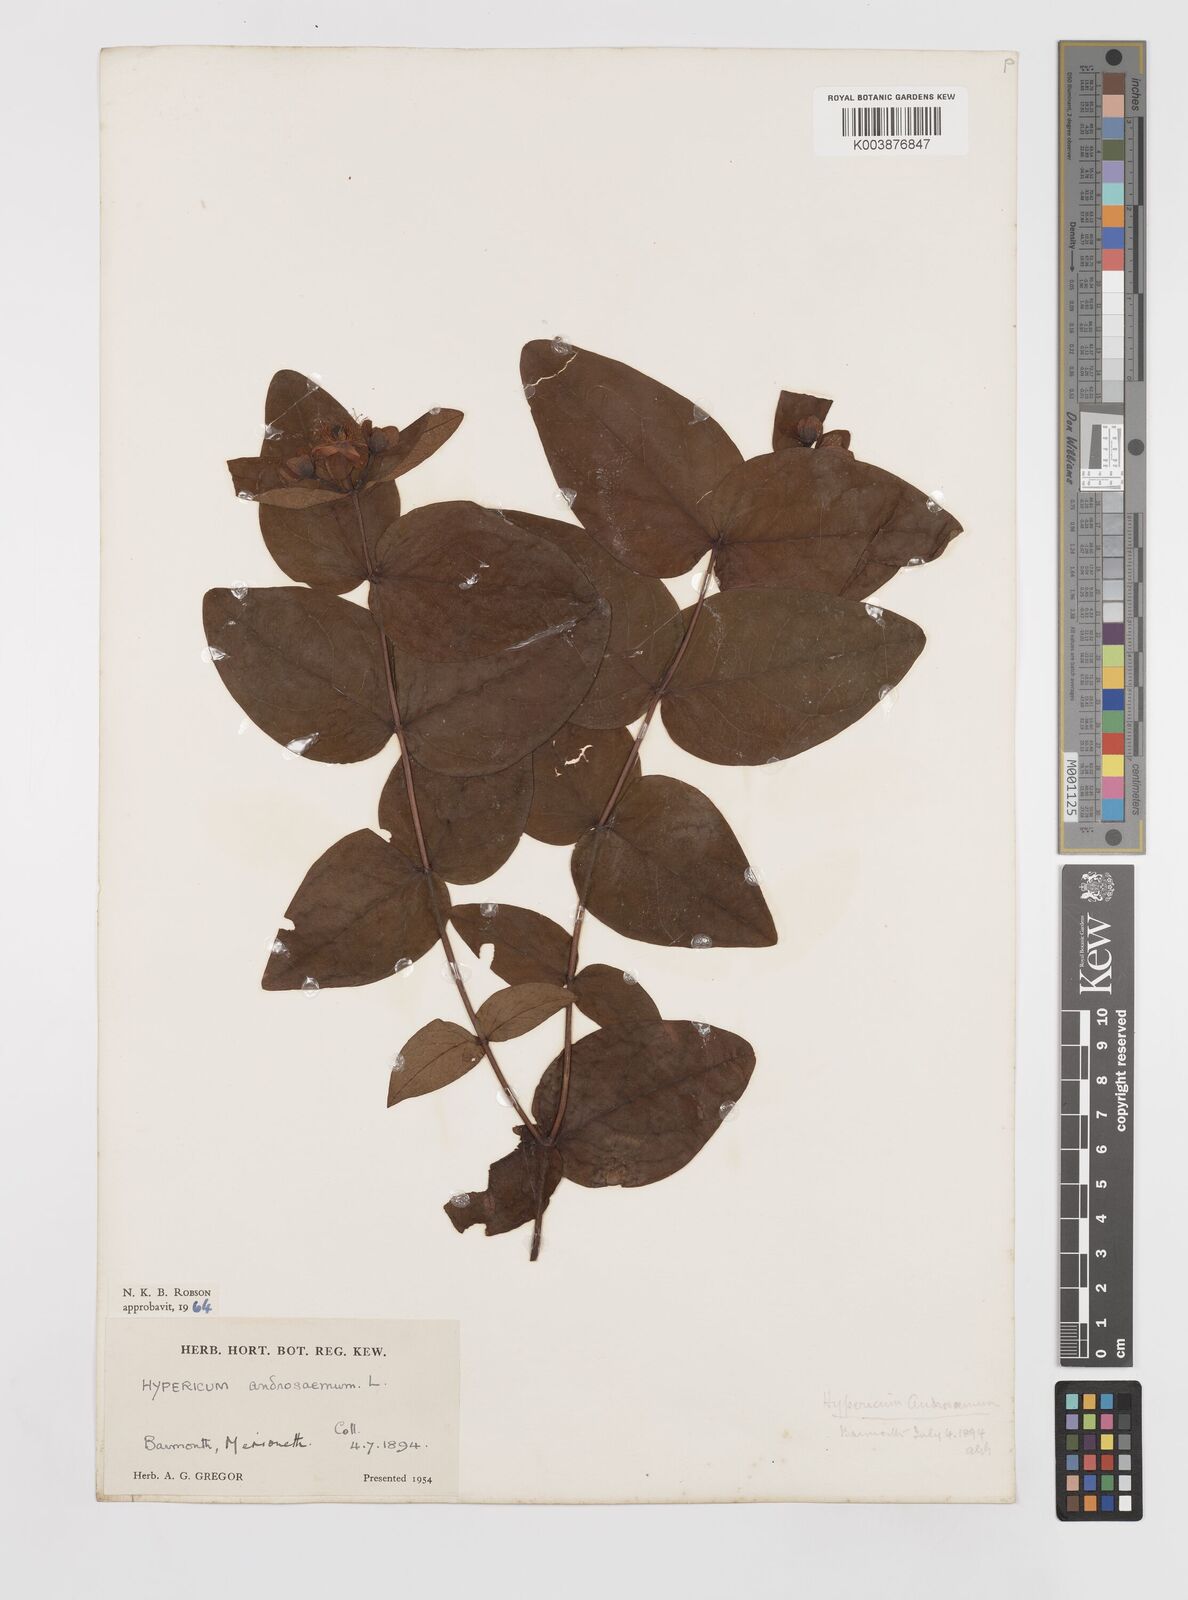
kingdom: Plantae
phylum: Tracheophyta
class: Magnoliopsida
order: Malpighiales
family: Hypericaceae
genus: Hypericum
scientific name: Hypericum androsaemum
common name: Sweet-amber
